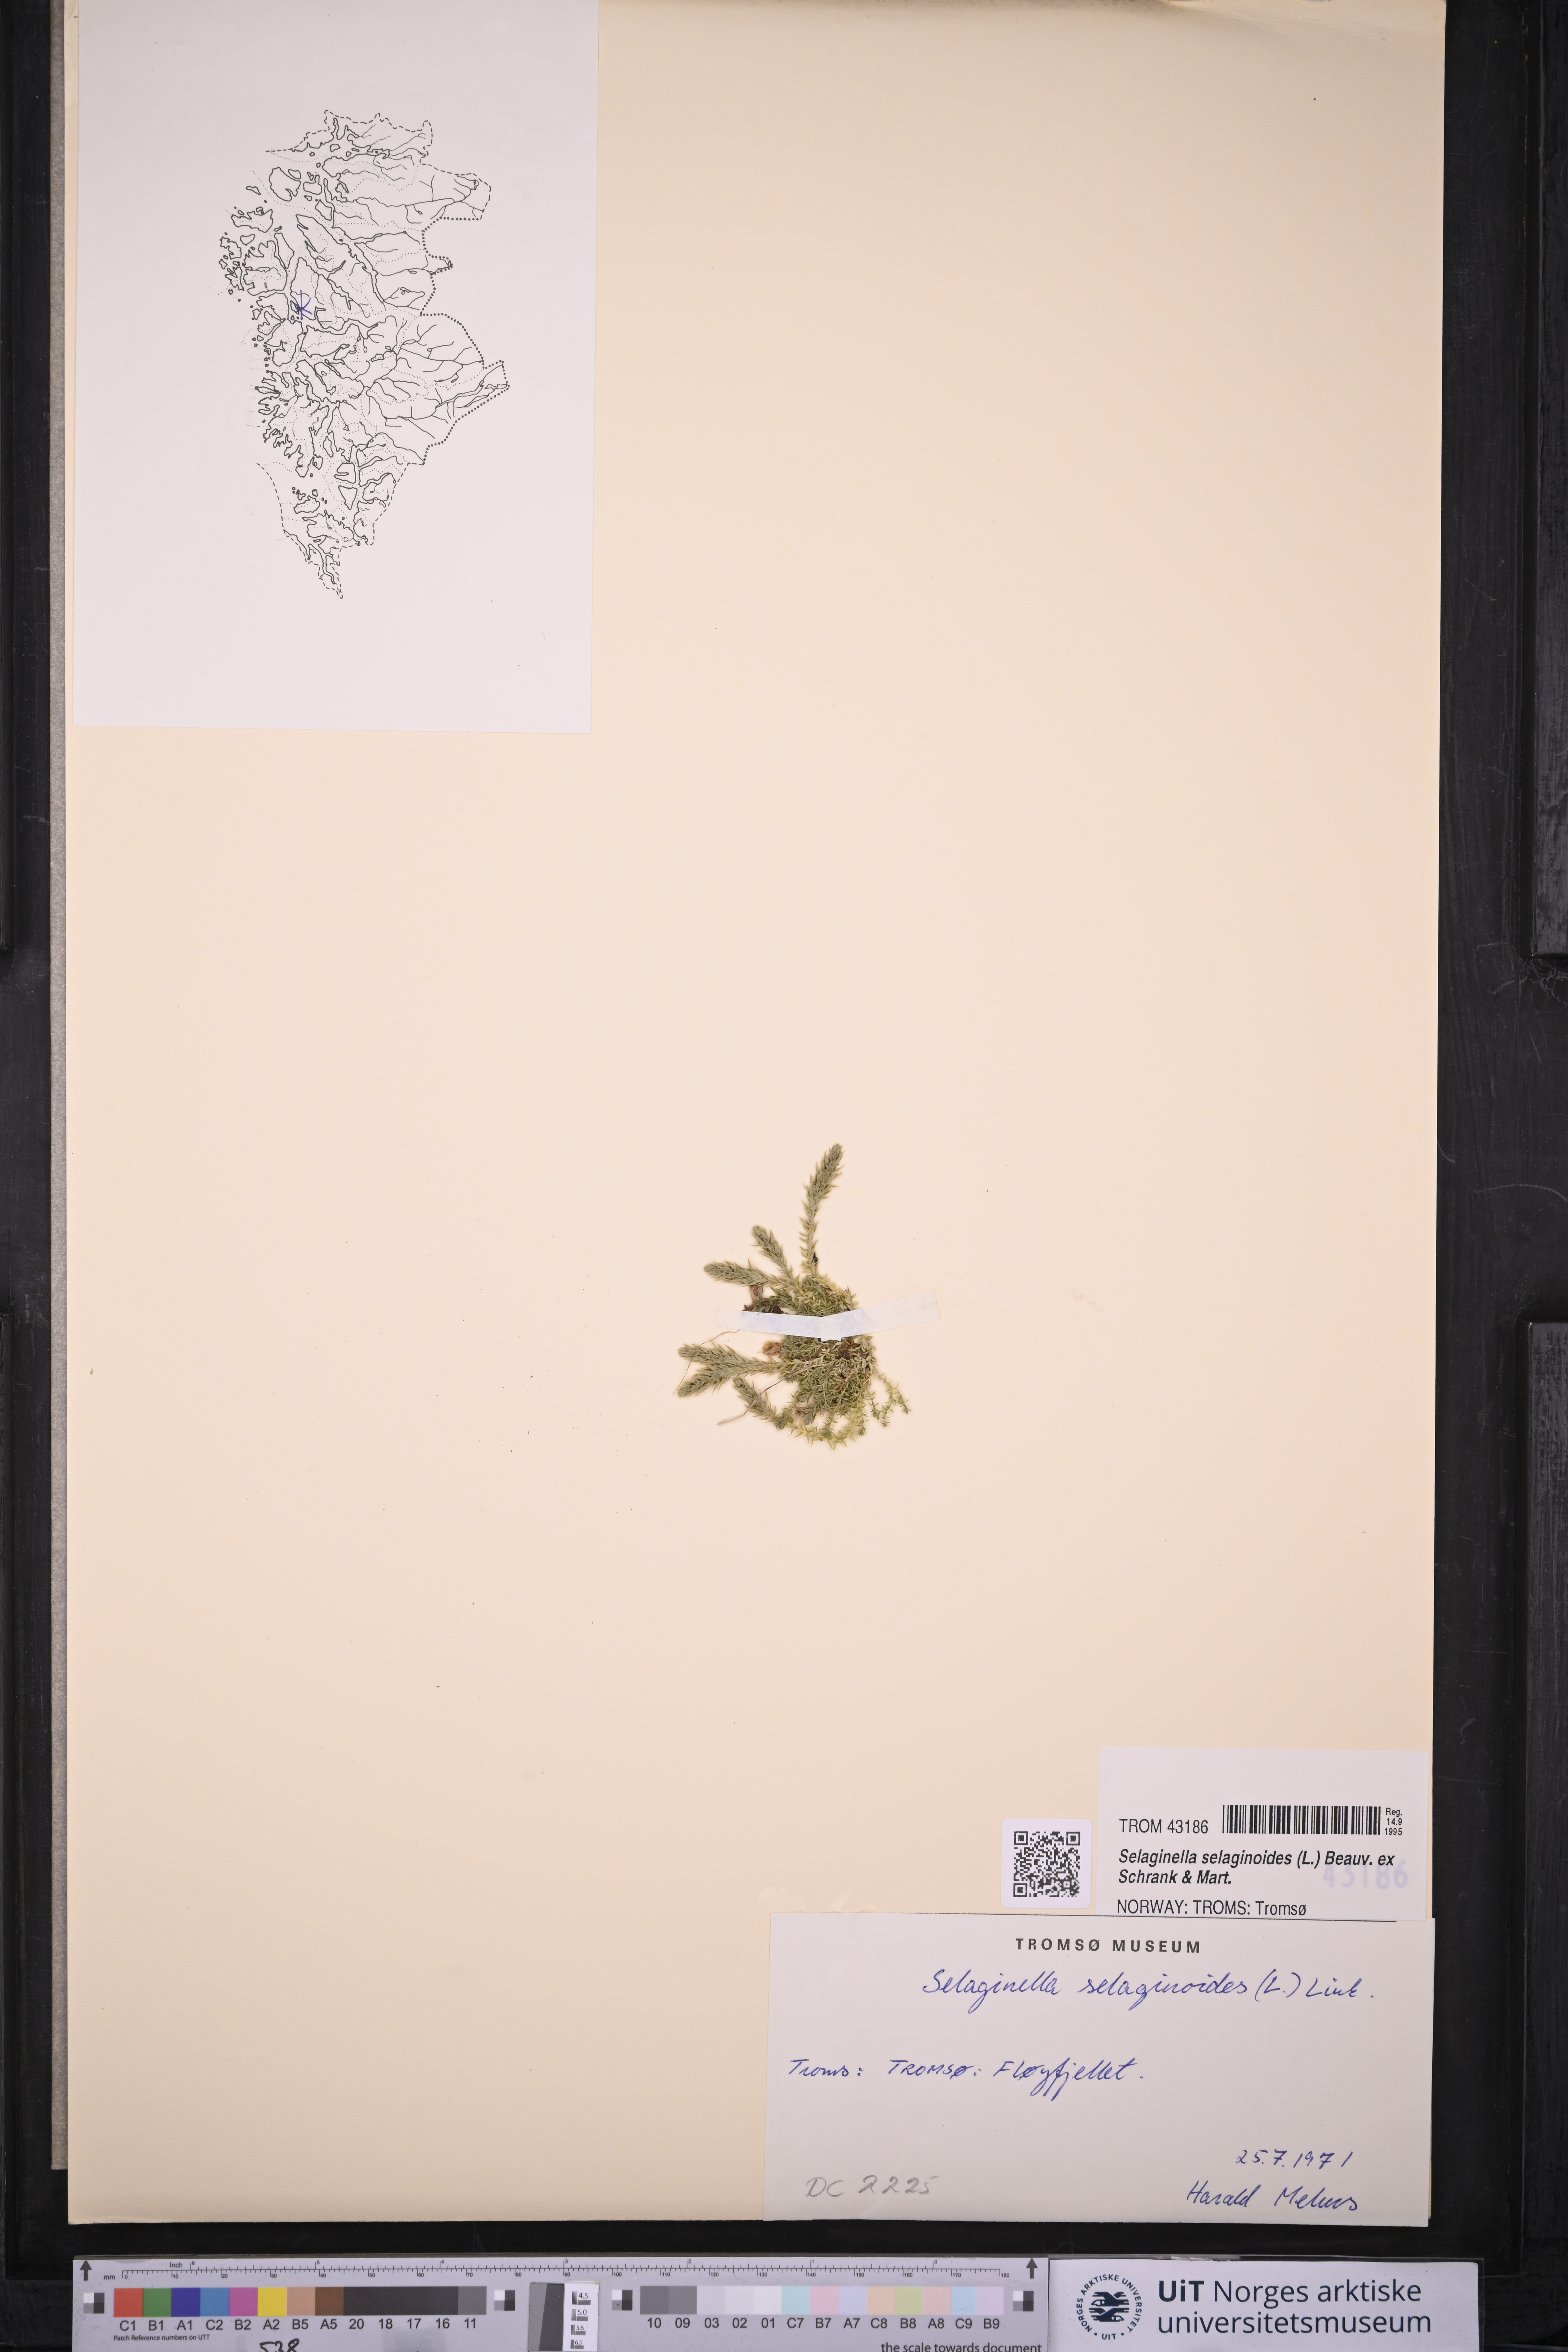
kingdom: Plantae
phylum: Tracheophyta
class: Lycopodiopsida
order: Selaginellales
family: Selaginellaceae
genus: Selaginella
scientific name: Selaginella selaginoides
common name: Prickly mountain-moss
